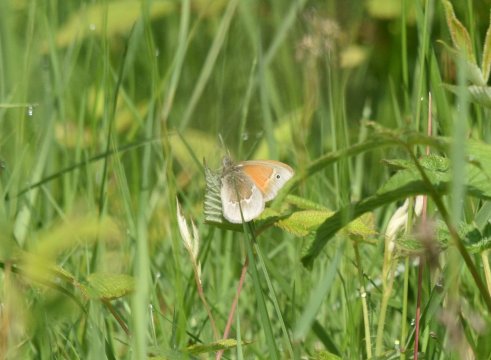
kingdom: Animalia
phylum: Arthropoda
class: Insecta
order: Lepidoptera
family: Nymphalidae
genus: Coenonympha
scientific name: Coenonympha tullia
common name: Large Heath
